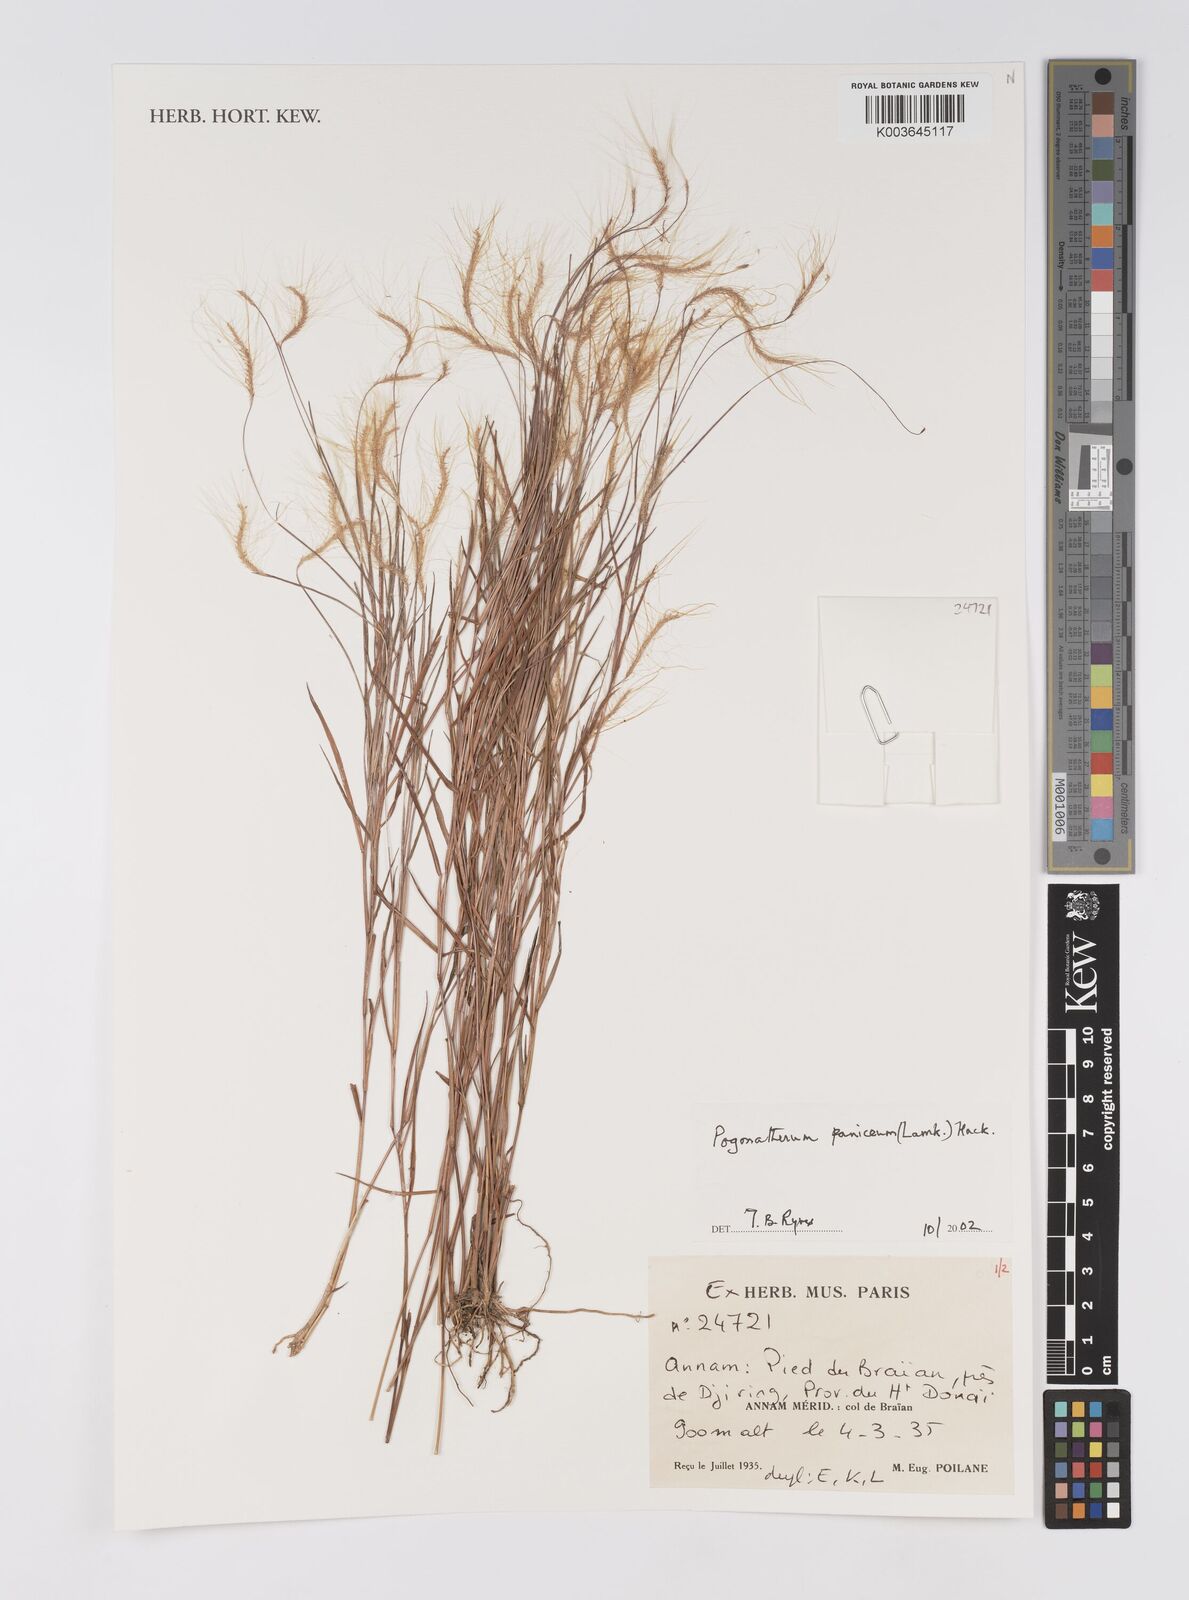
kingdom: Plantae
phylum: Tracheophyta
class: Liliopsida
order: Poales
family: Poaceae
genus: Pogonatherum
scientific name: Pogonatherum paniceum
